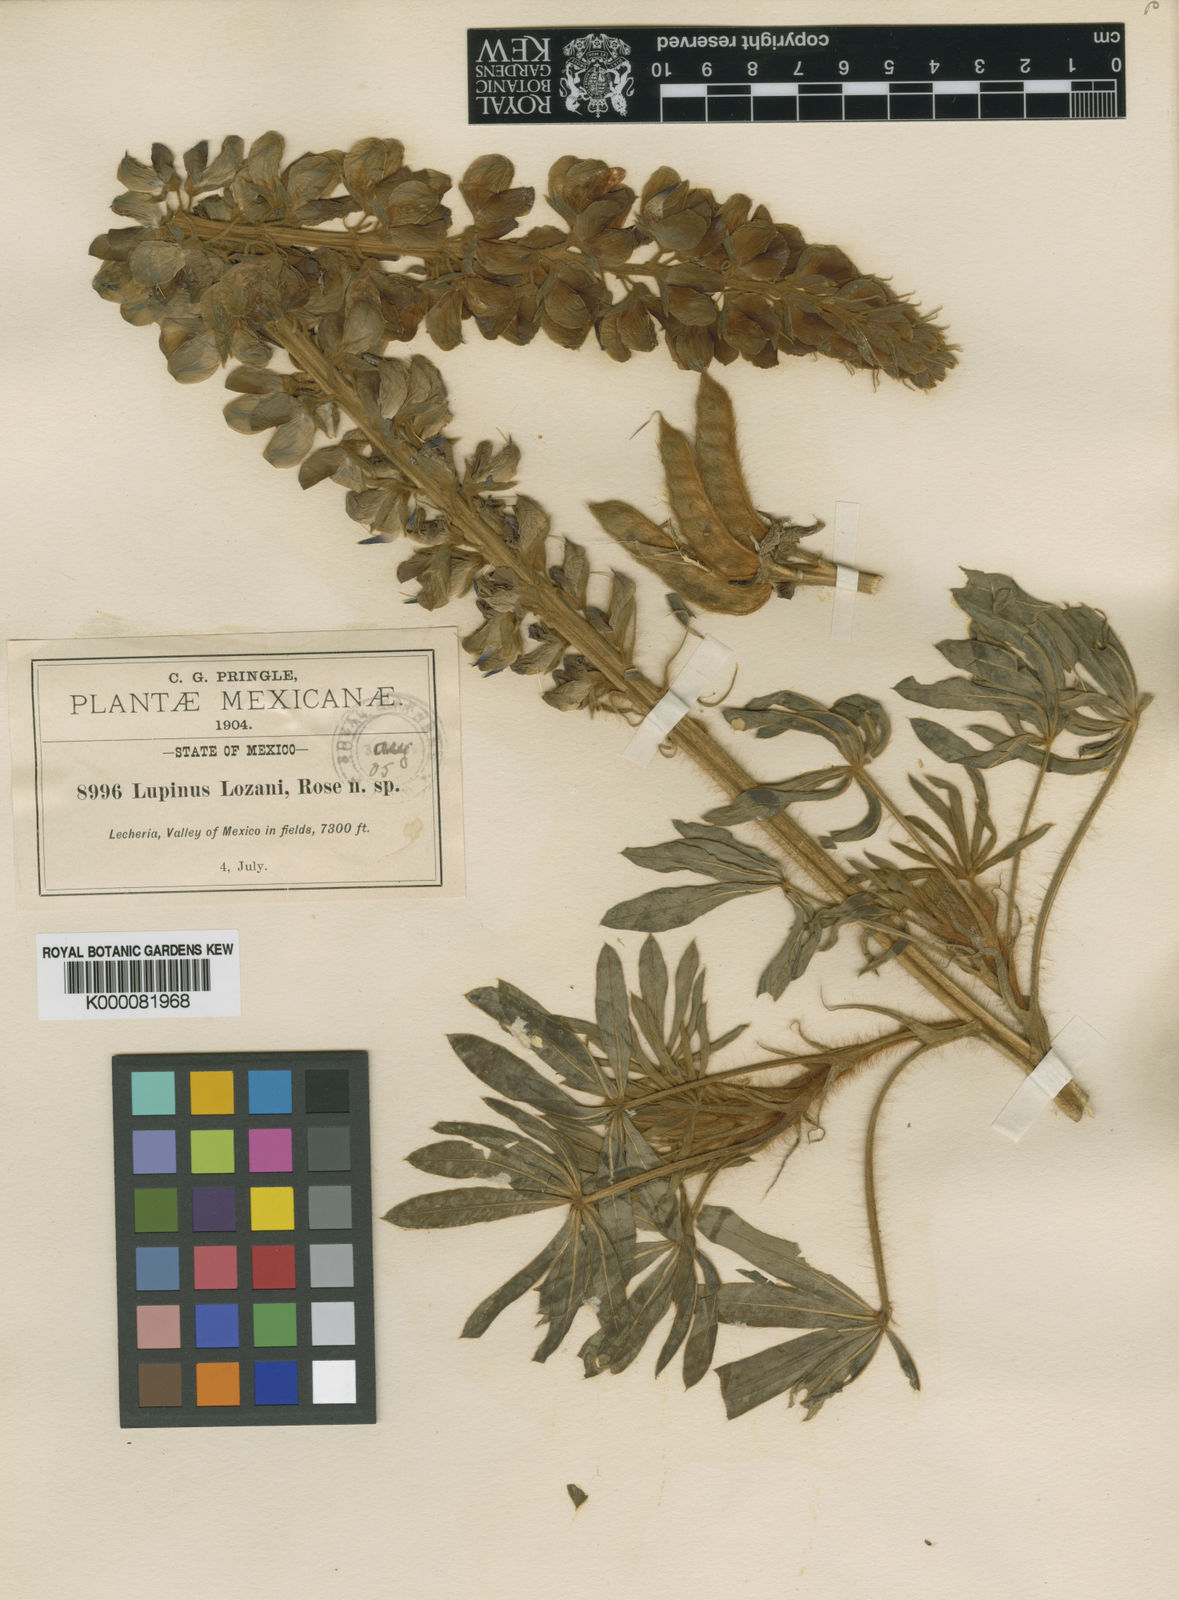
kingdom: Plantae
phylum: Tracheophyta
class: Magnoliopsida
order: Fabales
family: Fabaceae
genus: Lupinus
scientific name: Lupinus ehrenbergii
